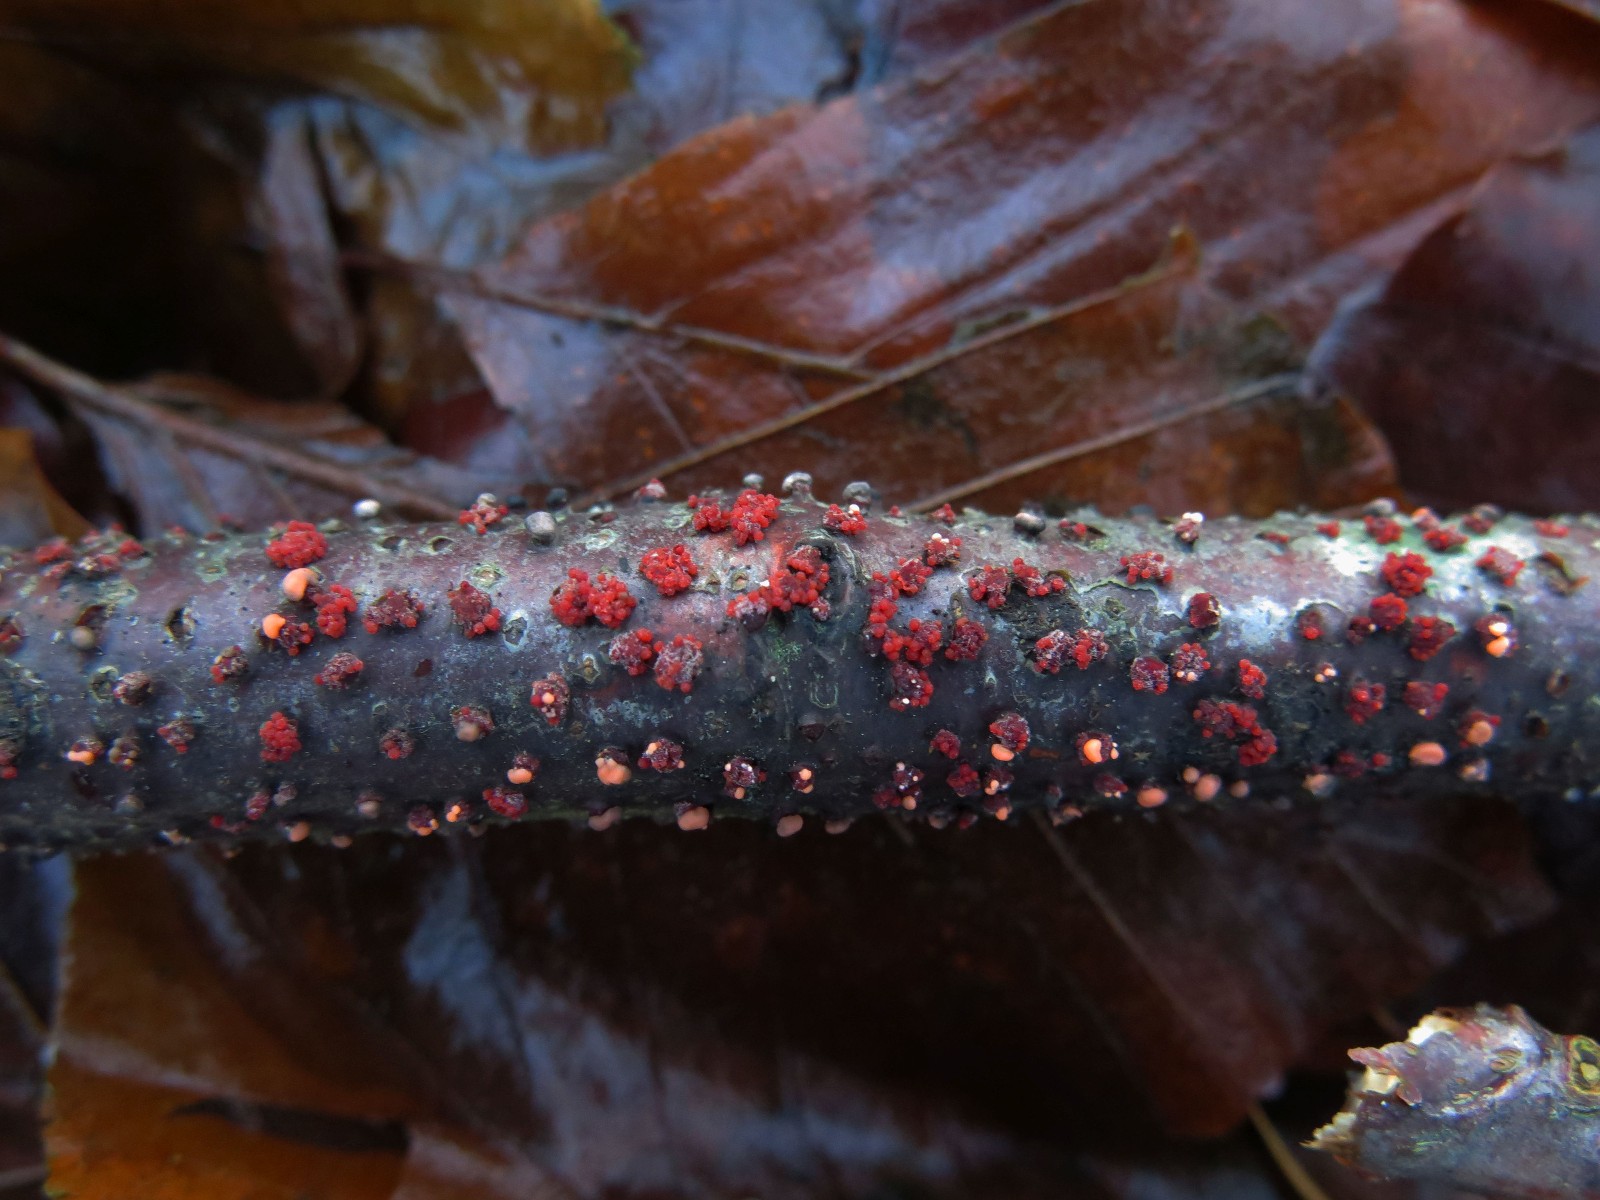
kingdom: Fungi
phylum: Ascomycota
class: Sordariomycetes
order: Hypocreales
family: Nectriaceae
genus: Nectria
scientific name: Nectria cinnabarina
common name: almindelig cinnobersvamp
